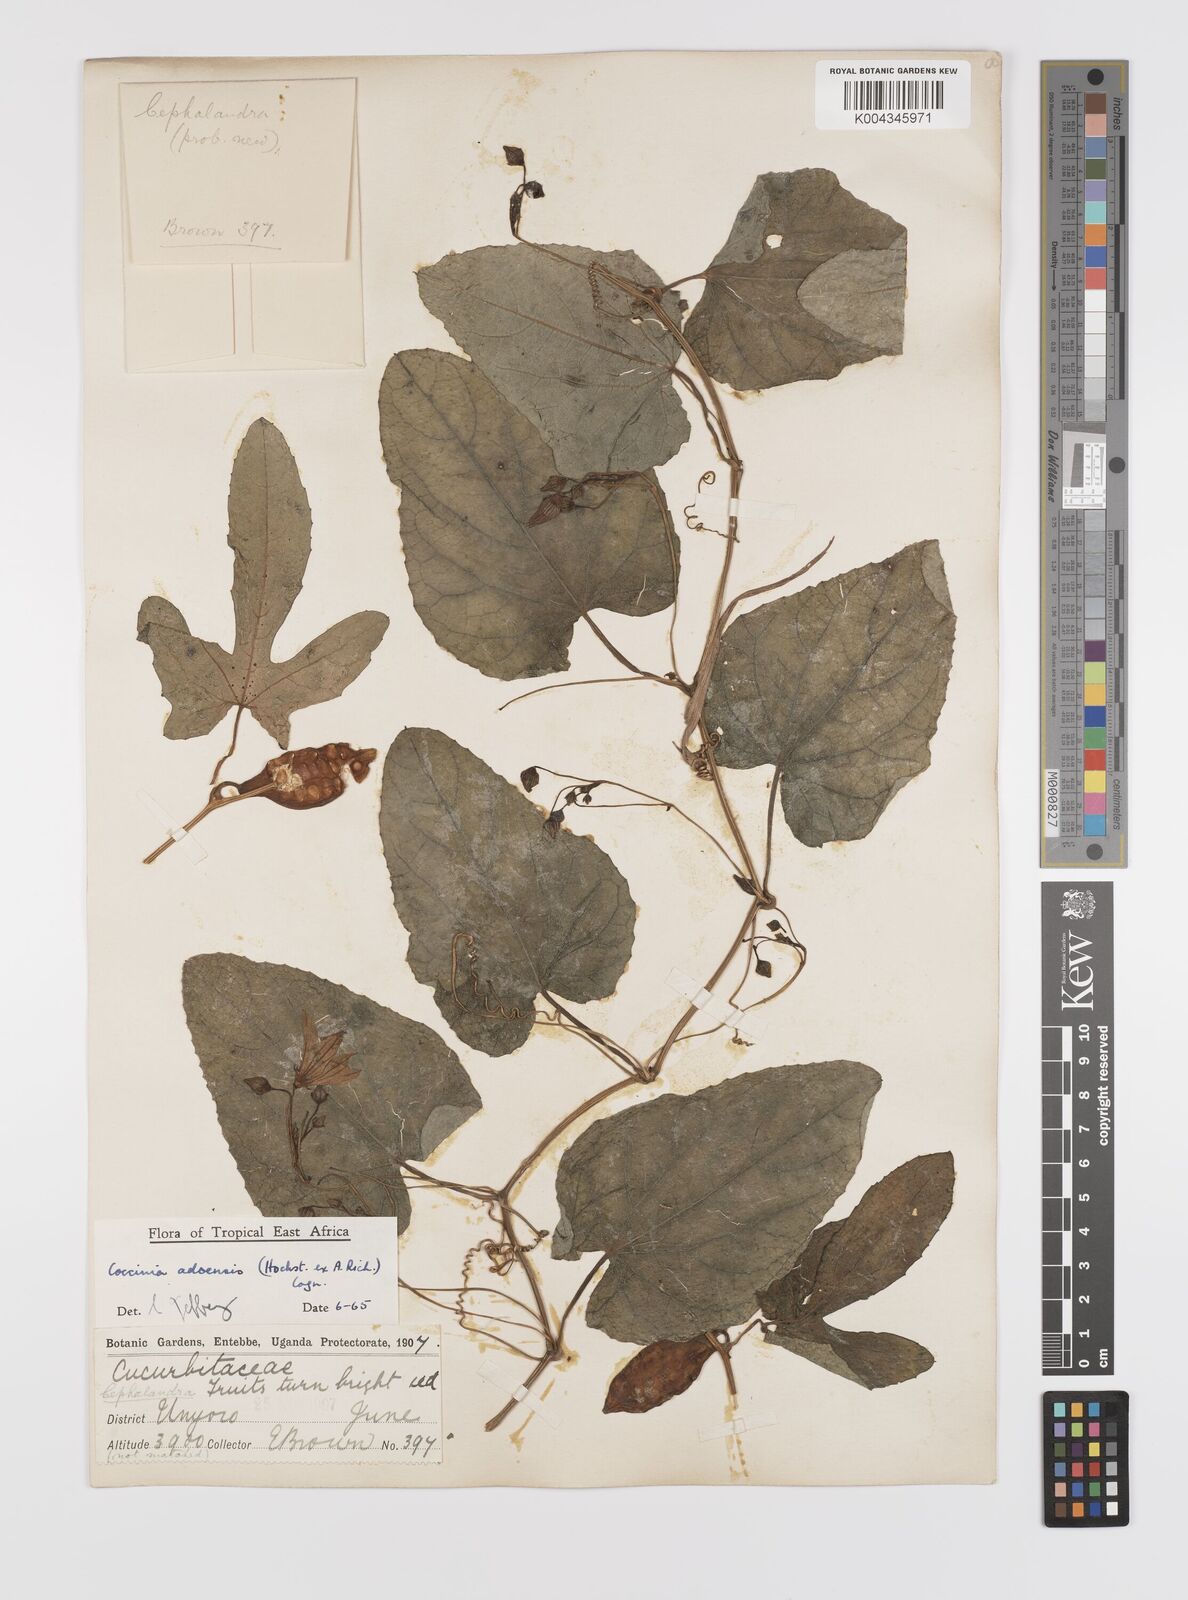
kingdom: Plantae
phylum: Tracheophyta
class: Magnoliopsida
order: Cucurbitales
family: Cucurbitaceae
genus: Coccinia
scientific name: Coccinia adoensis
